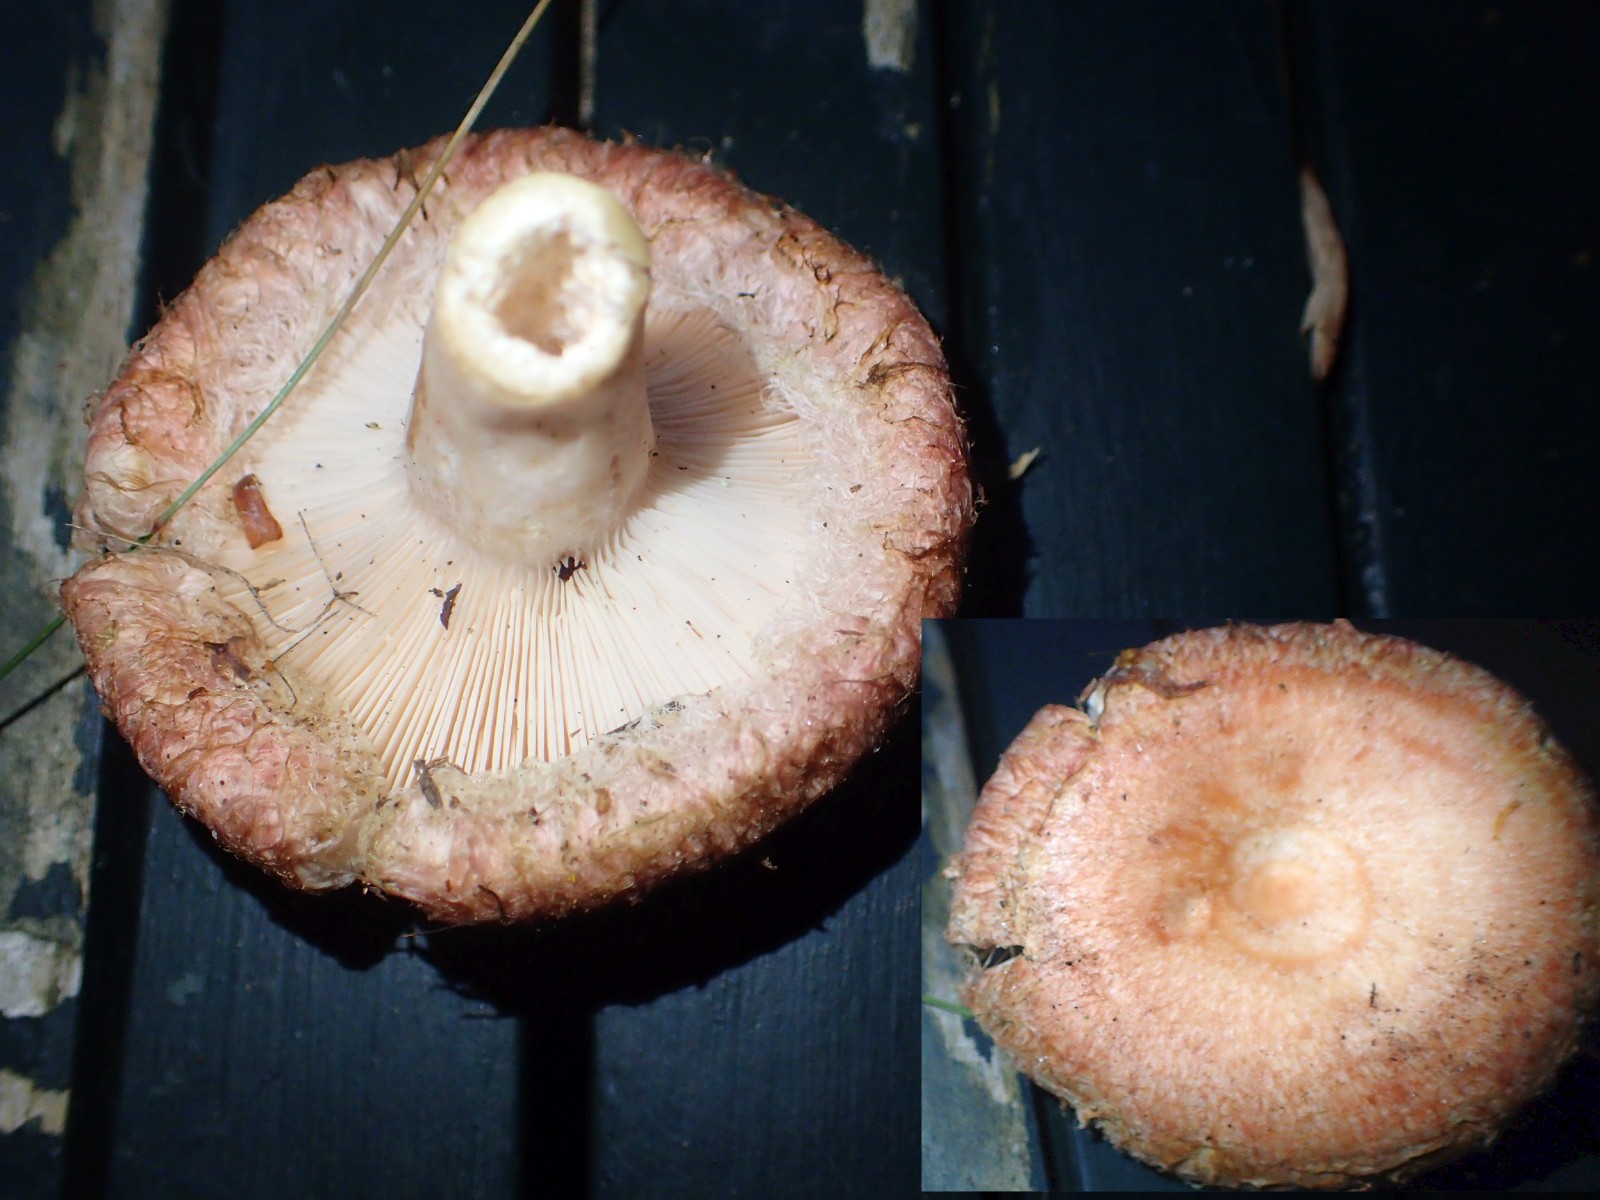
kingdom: Fungi
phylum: Basidiomycota
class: Agaricomycetes
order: Russulales
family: Russulaceae
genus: Lactarius
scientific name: Lactarius torminosus
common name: skægget mælkehat
